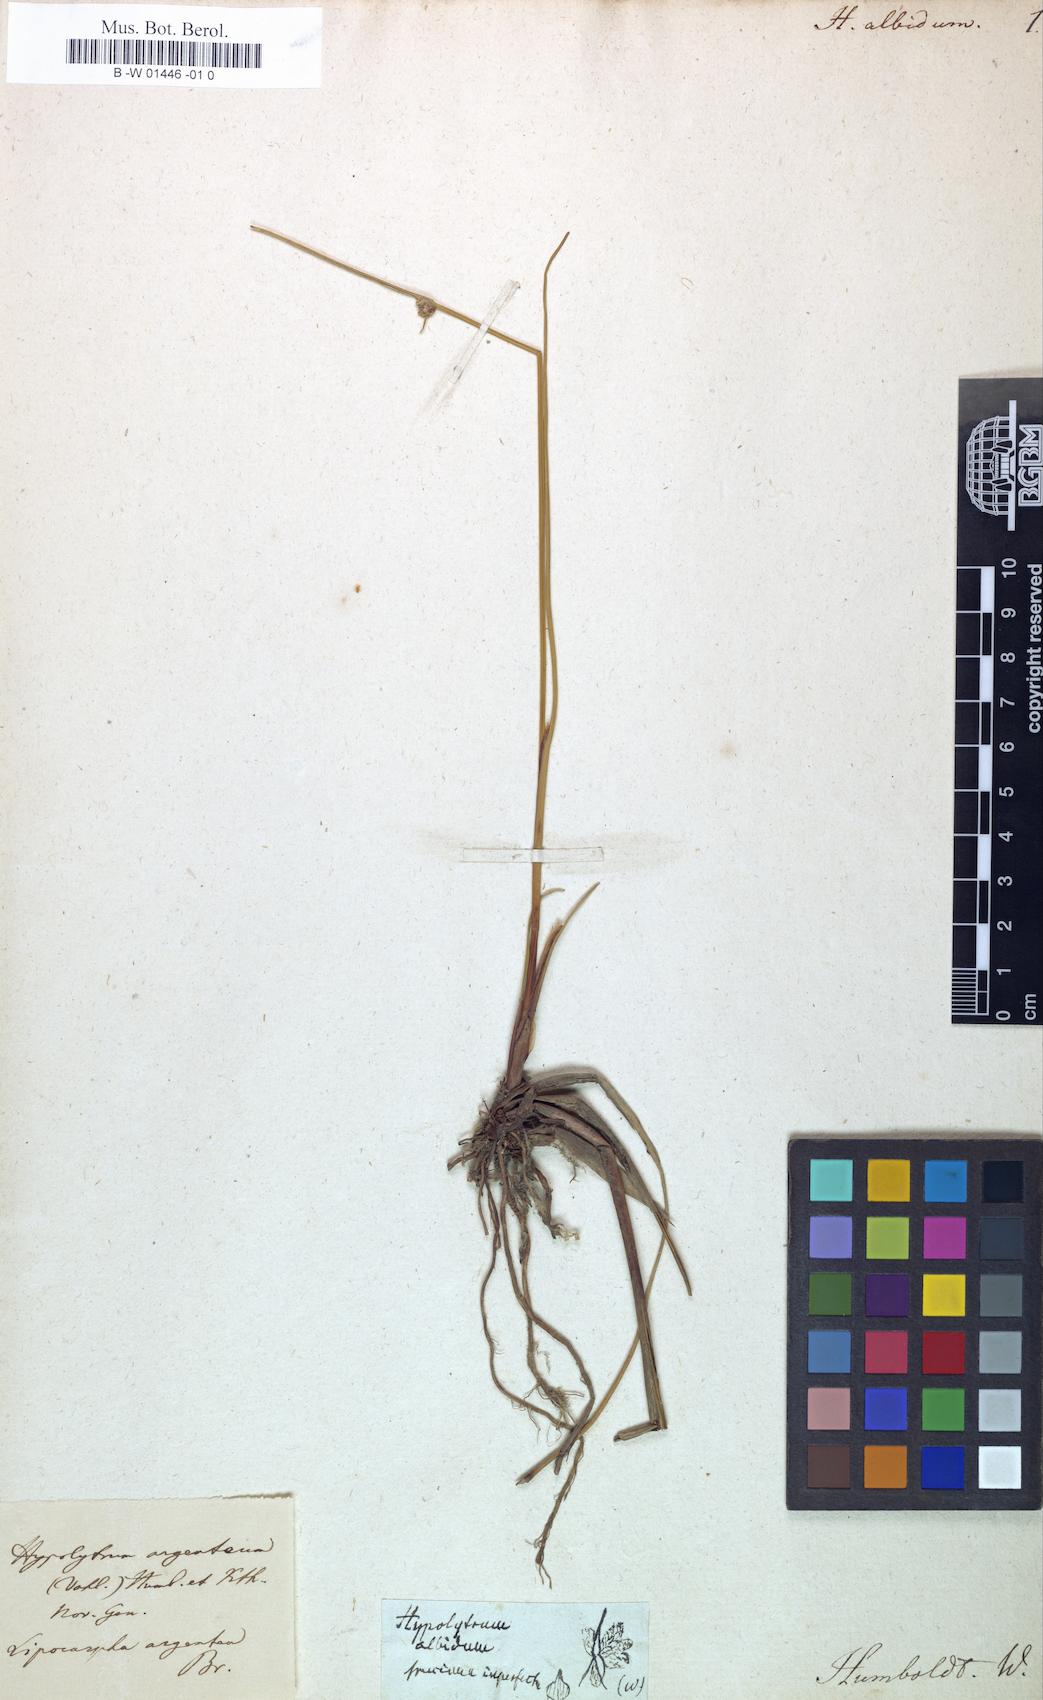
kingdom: Plantae
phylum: Tracheophyta
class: Liliopsida
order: Poales
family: Cyperaceae
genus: Cyperus
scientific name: Cyperus
